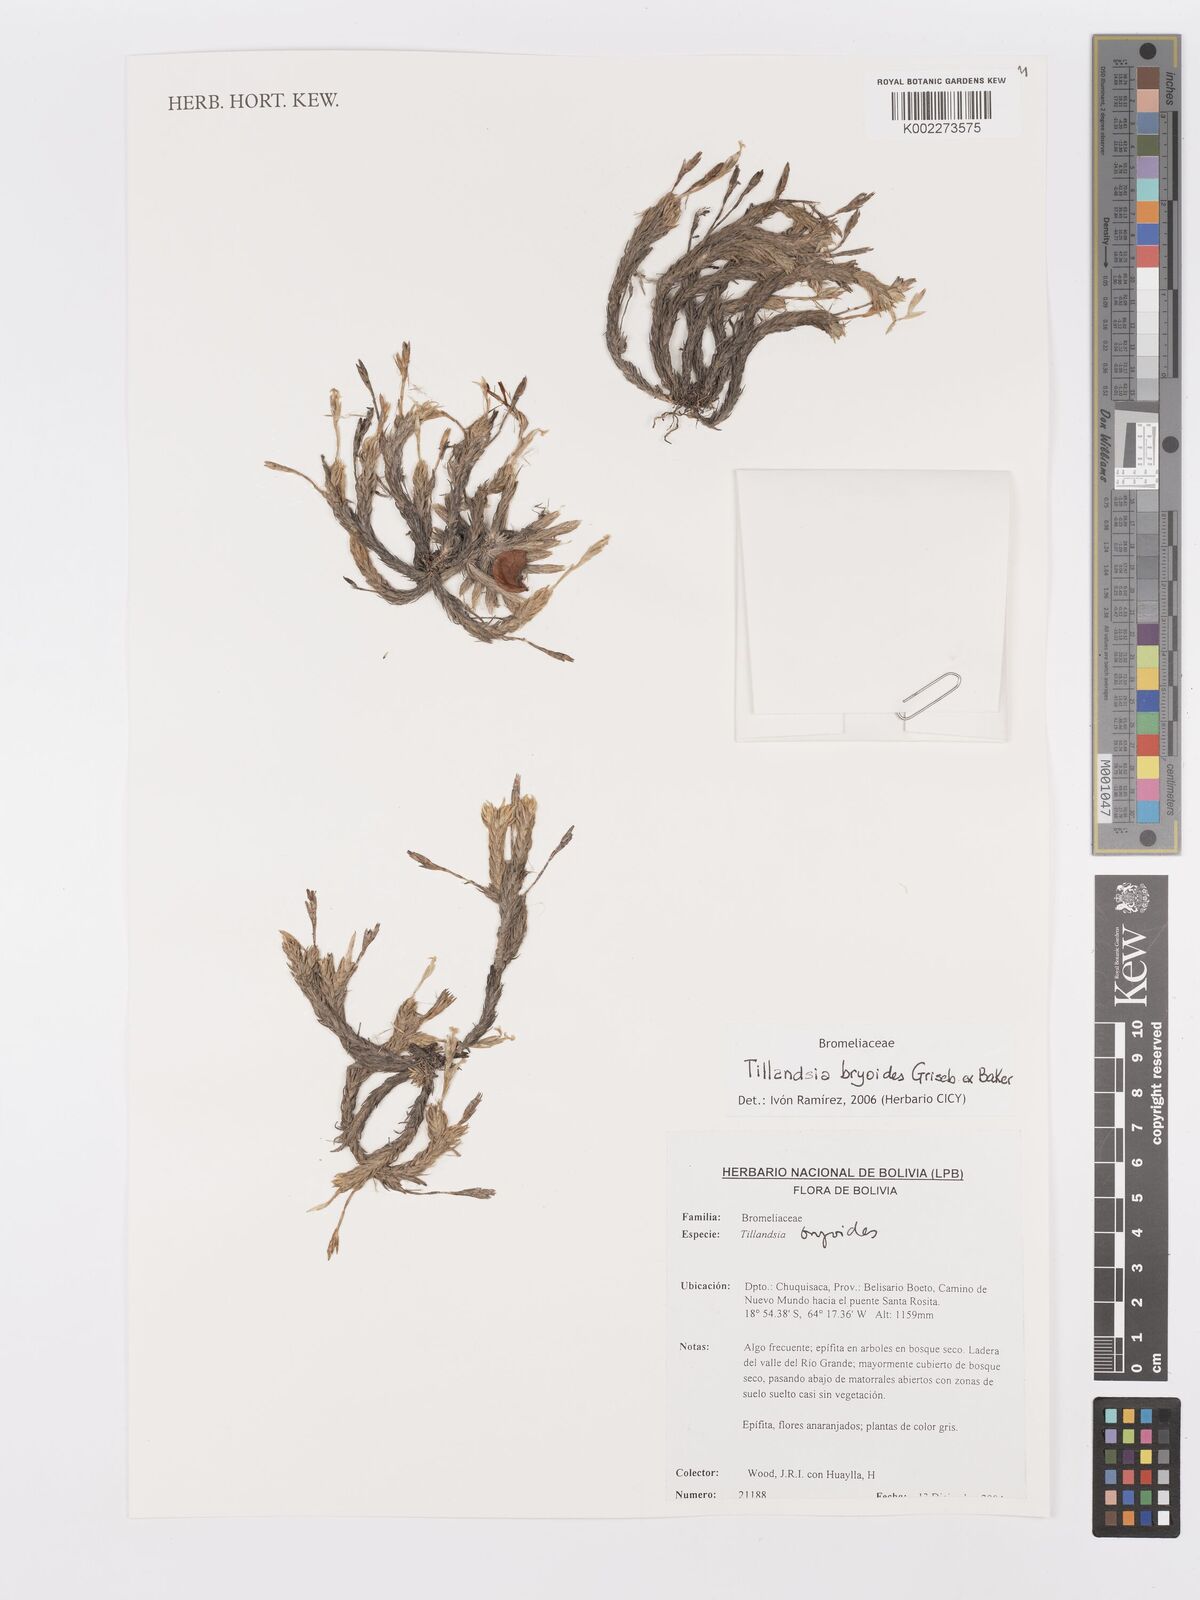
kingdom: Plantae
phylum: Tracheophyta
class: Liliopsida
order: Poales
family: Bromeliaceae
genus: Tillandsia
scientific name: Tillandsia tricholepis
